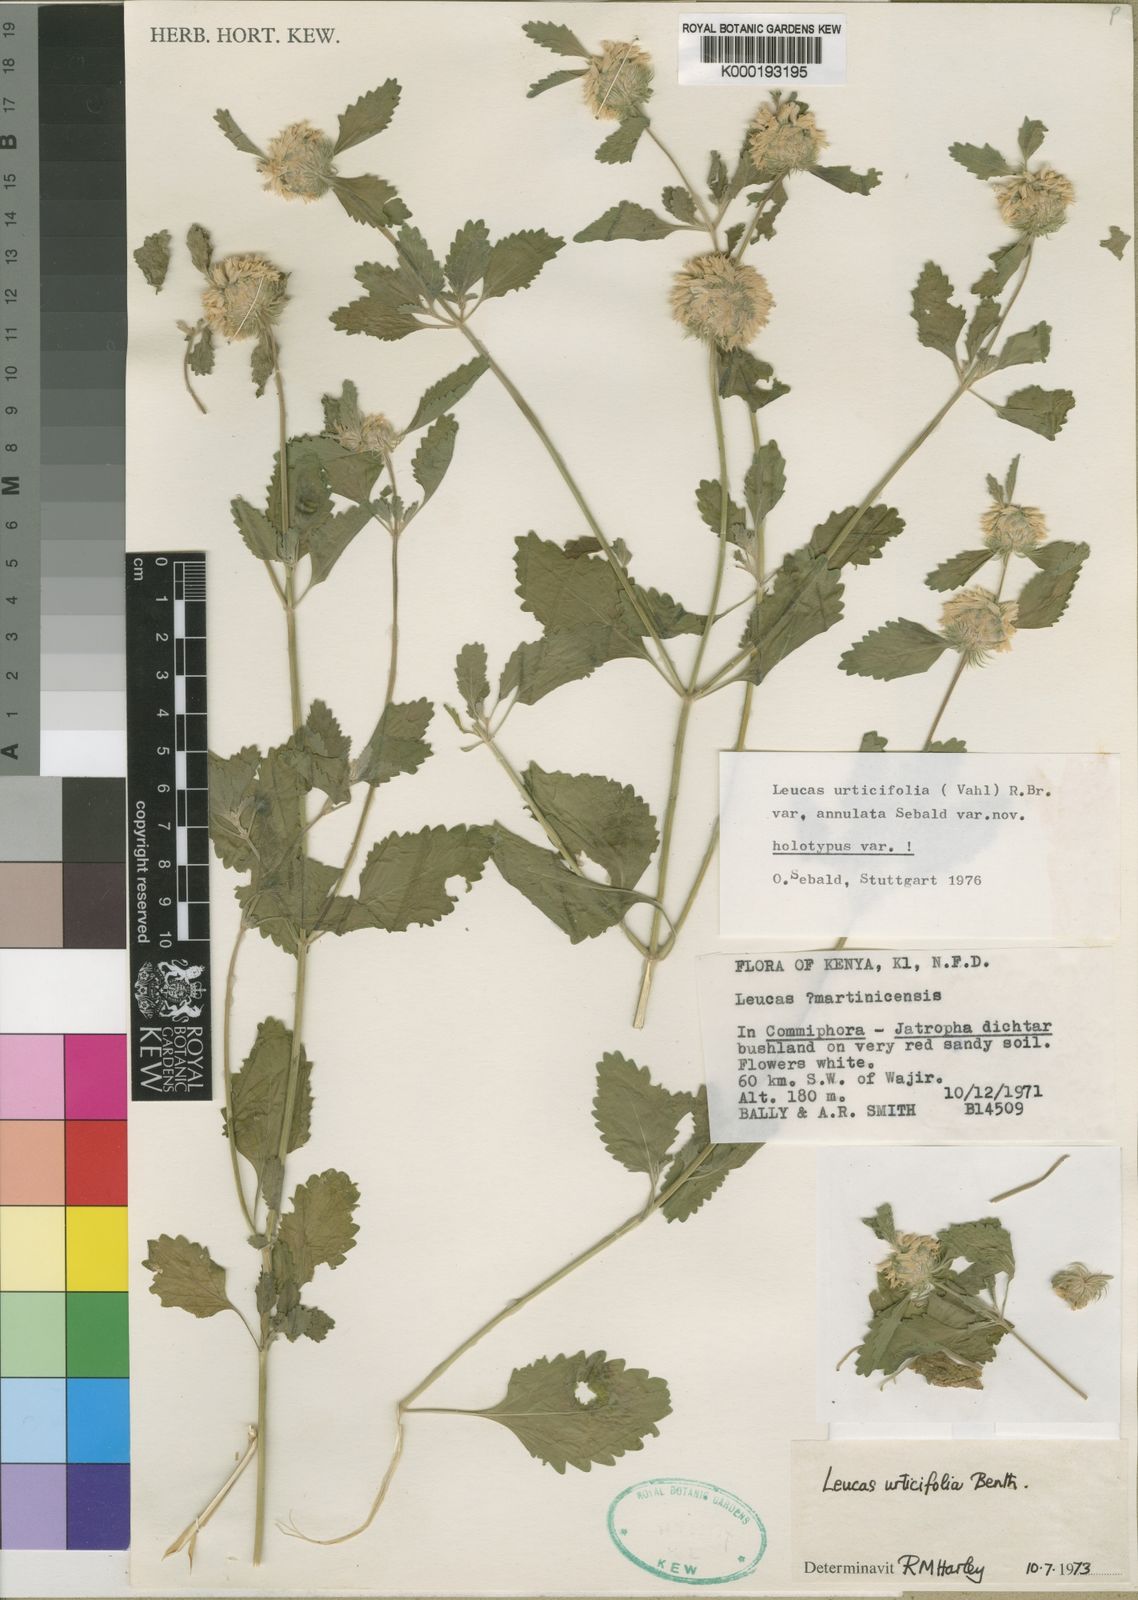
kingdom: Plantae
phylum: Tracheophyta
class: Magnoliopsida
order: Lamiales
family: Lamiaceae
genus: Leucas
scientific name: Leucas urticifolia
